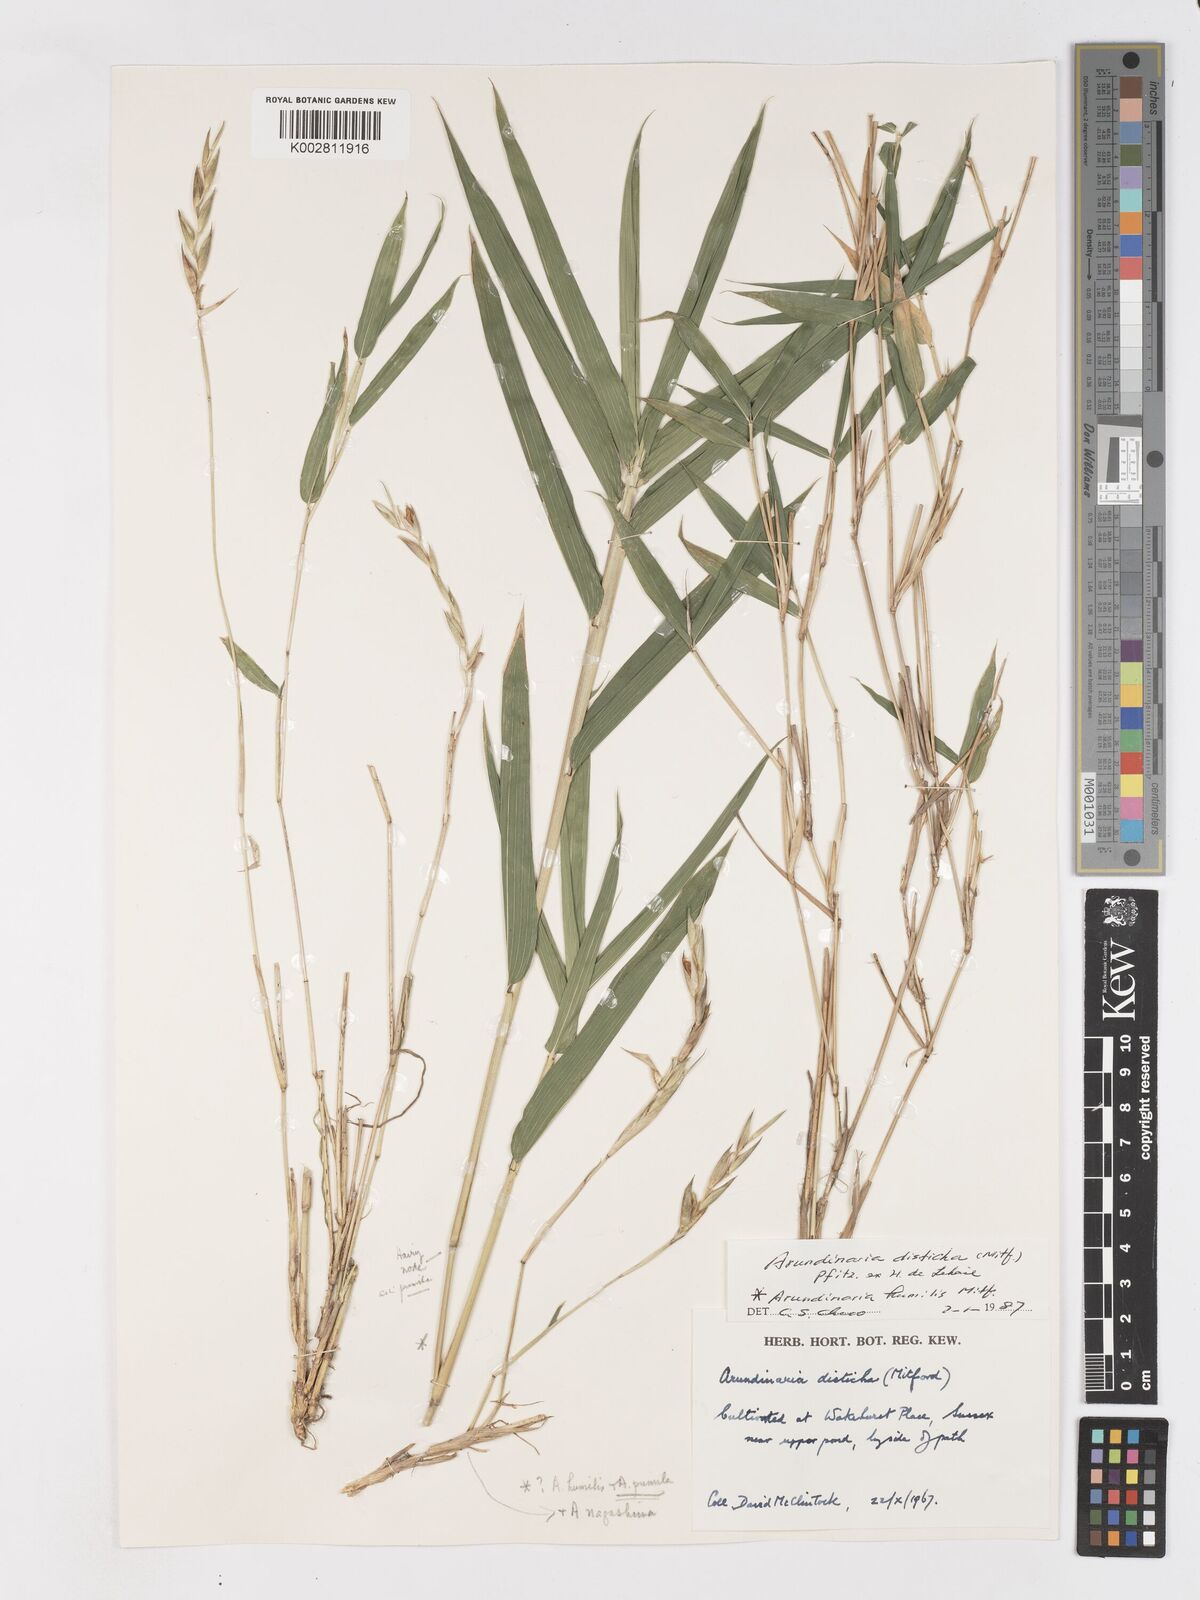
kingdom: Plantae
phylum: Tracheophyta
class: Liliopsida
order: Poales
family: Poaceae
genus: Pleioblastus
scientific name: Pleioblastus distichus
